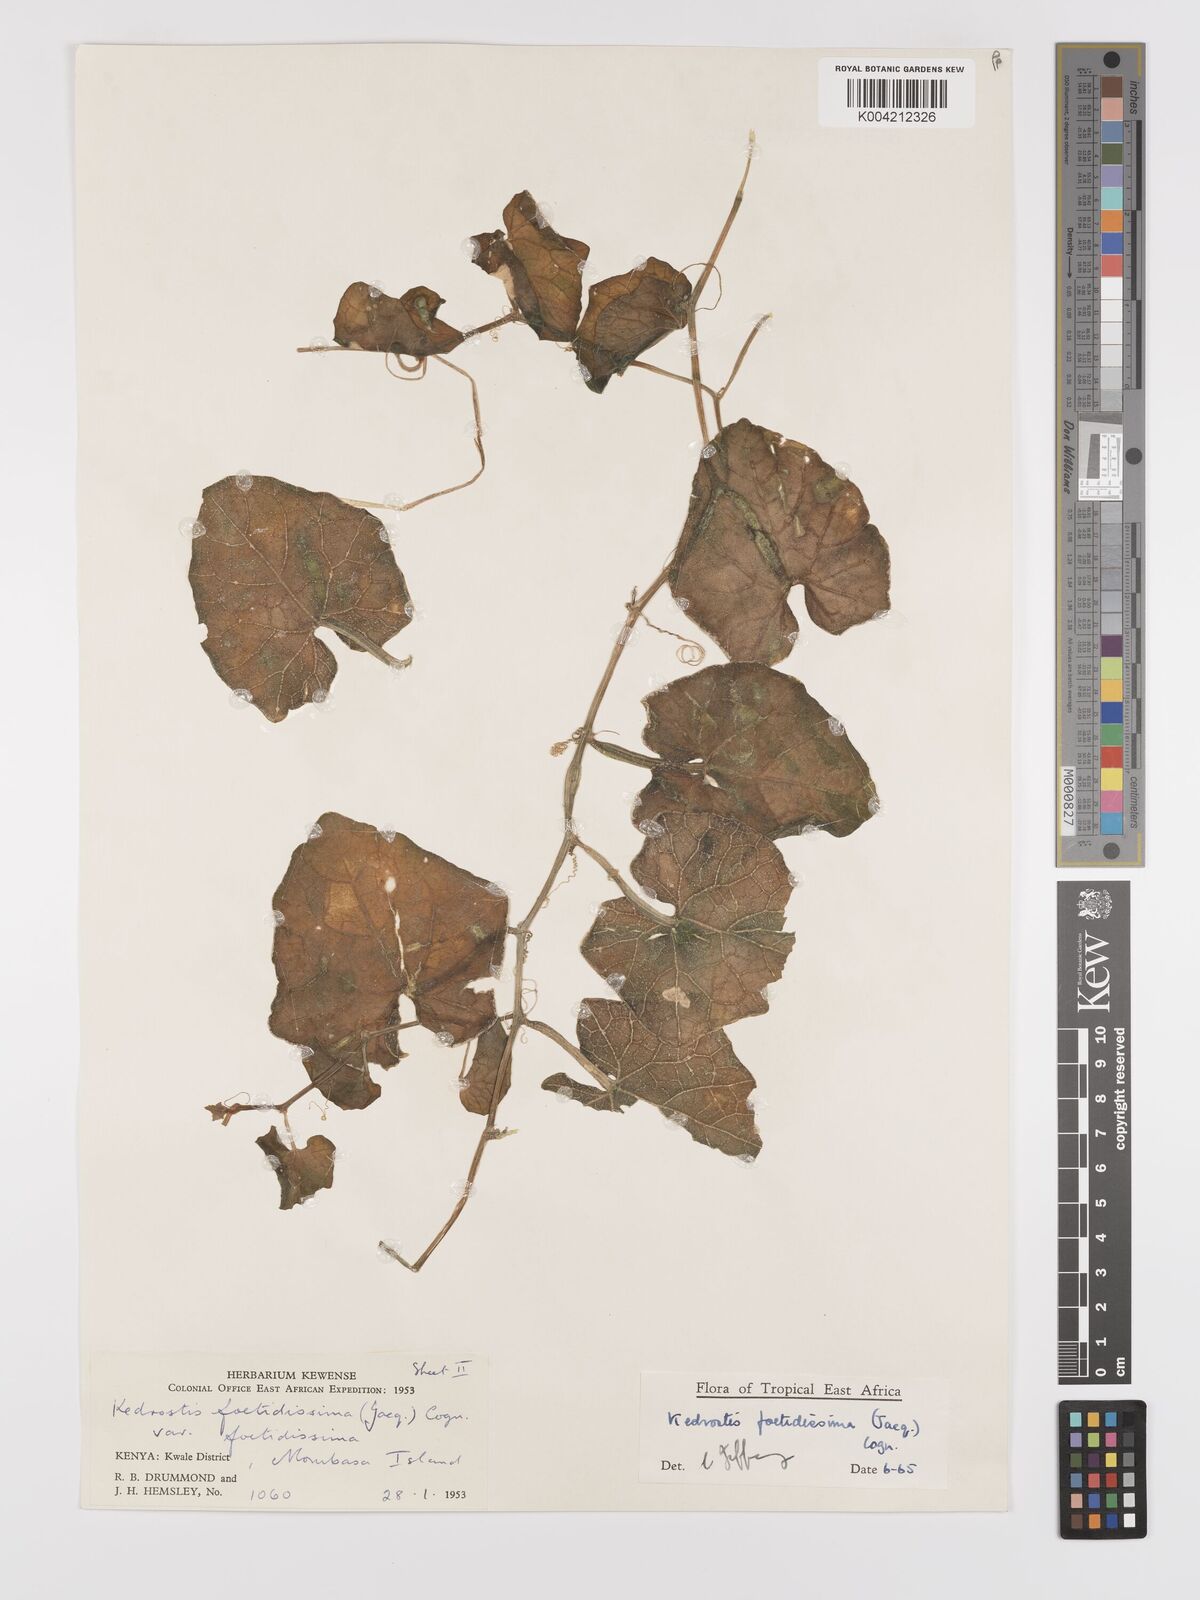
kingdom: Plantae
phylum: Tracheophyta
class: Magnoliopsida
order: Cucurbitales
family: Cucurbitaceae
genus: Kedrostis
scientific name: Kedrostis foetidissima
